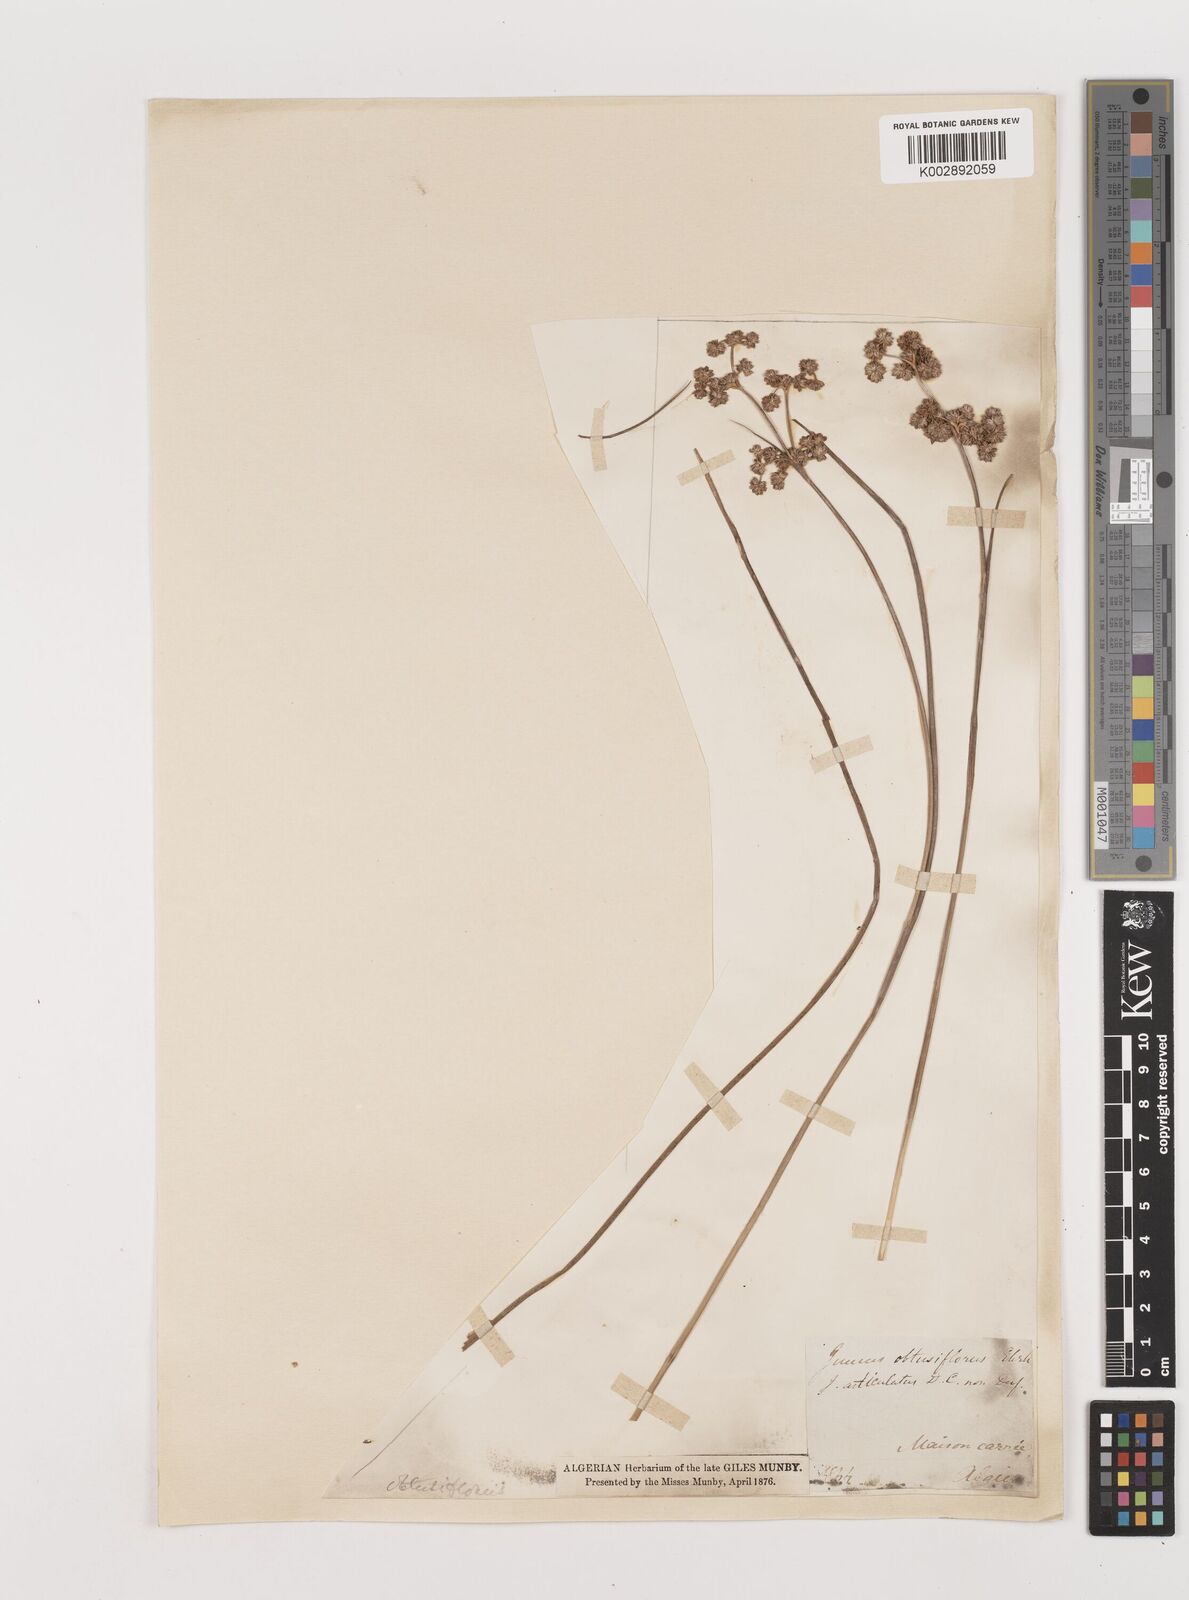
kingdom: Plantae
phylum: Tracheophyta
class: Liliopsida
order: Poales
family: Juncaceae
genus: Juncus
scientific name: Juncus subnodulosus
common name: Blunt-flowered rush
